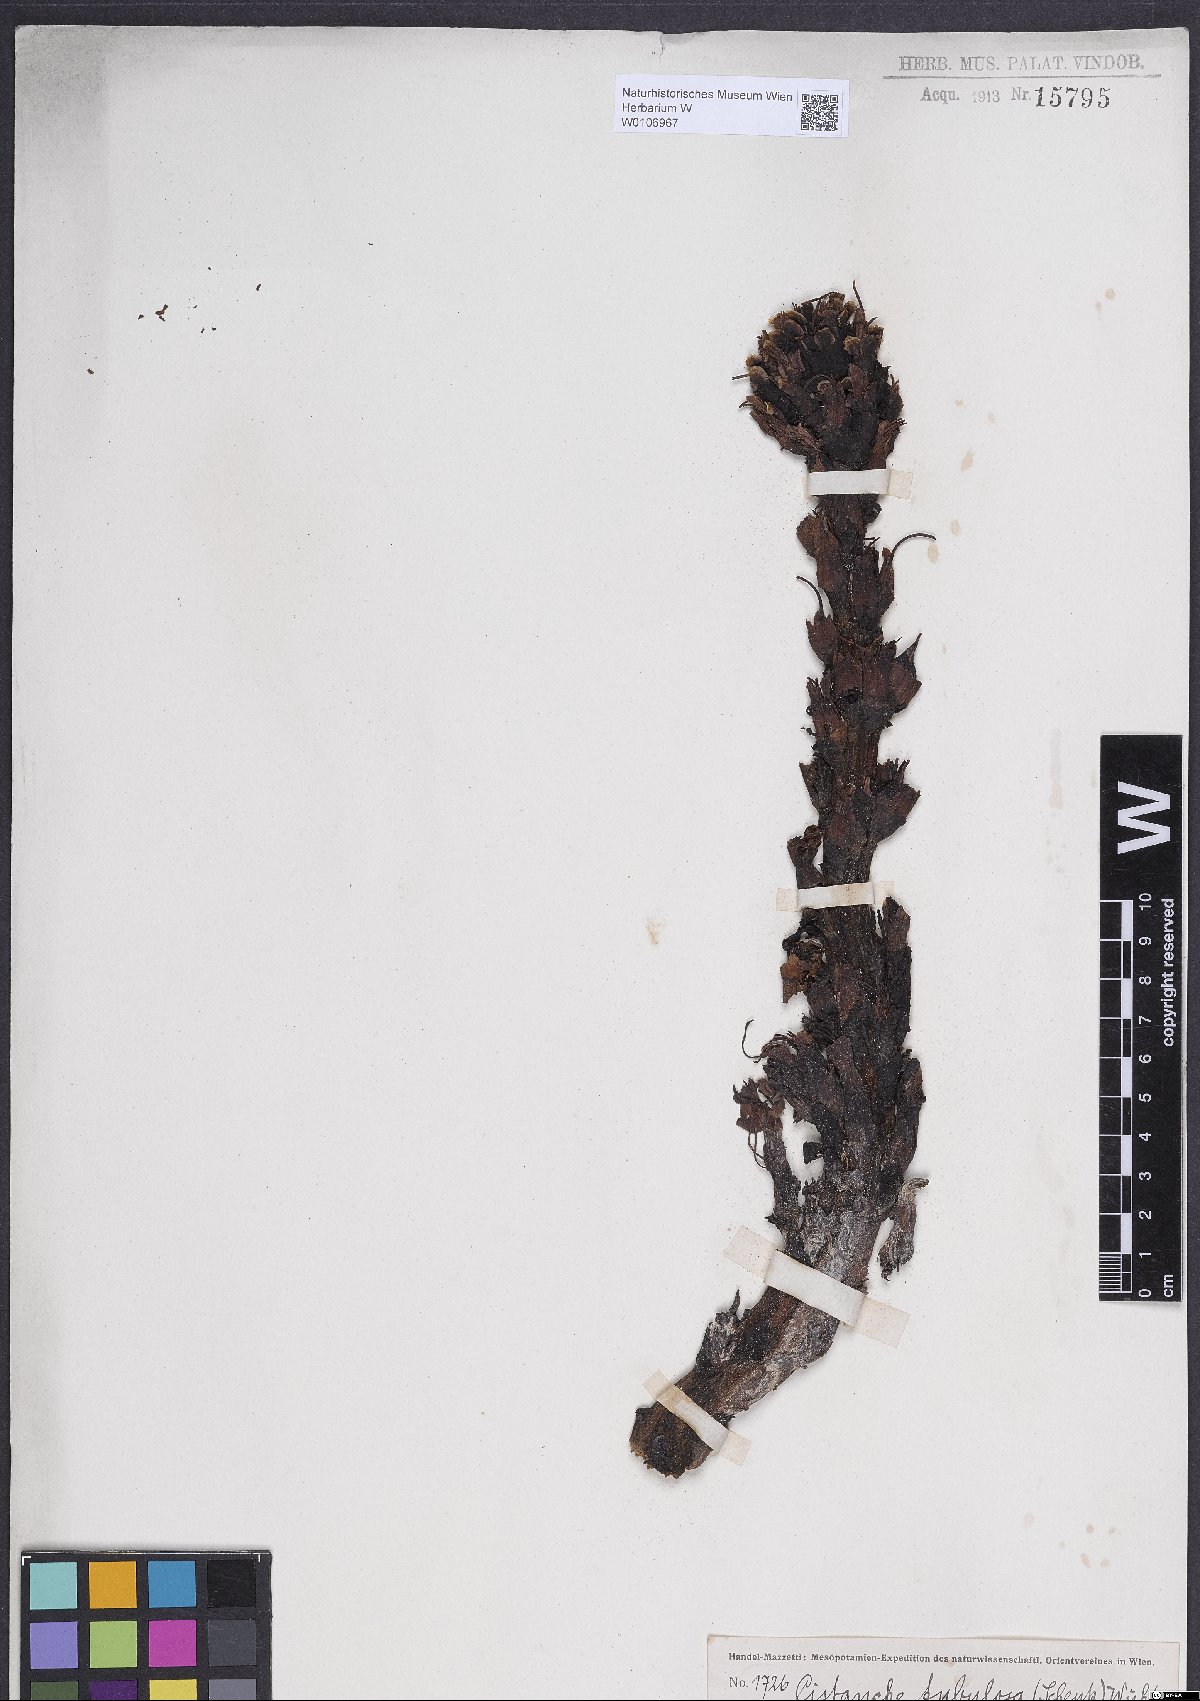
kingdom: Plantae
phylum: Tracheophyta
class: Magnoliopsida
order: Lamiales
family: Orobanchaceae
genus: Cistanche
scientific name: Cistanche tubulosa
